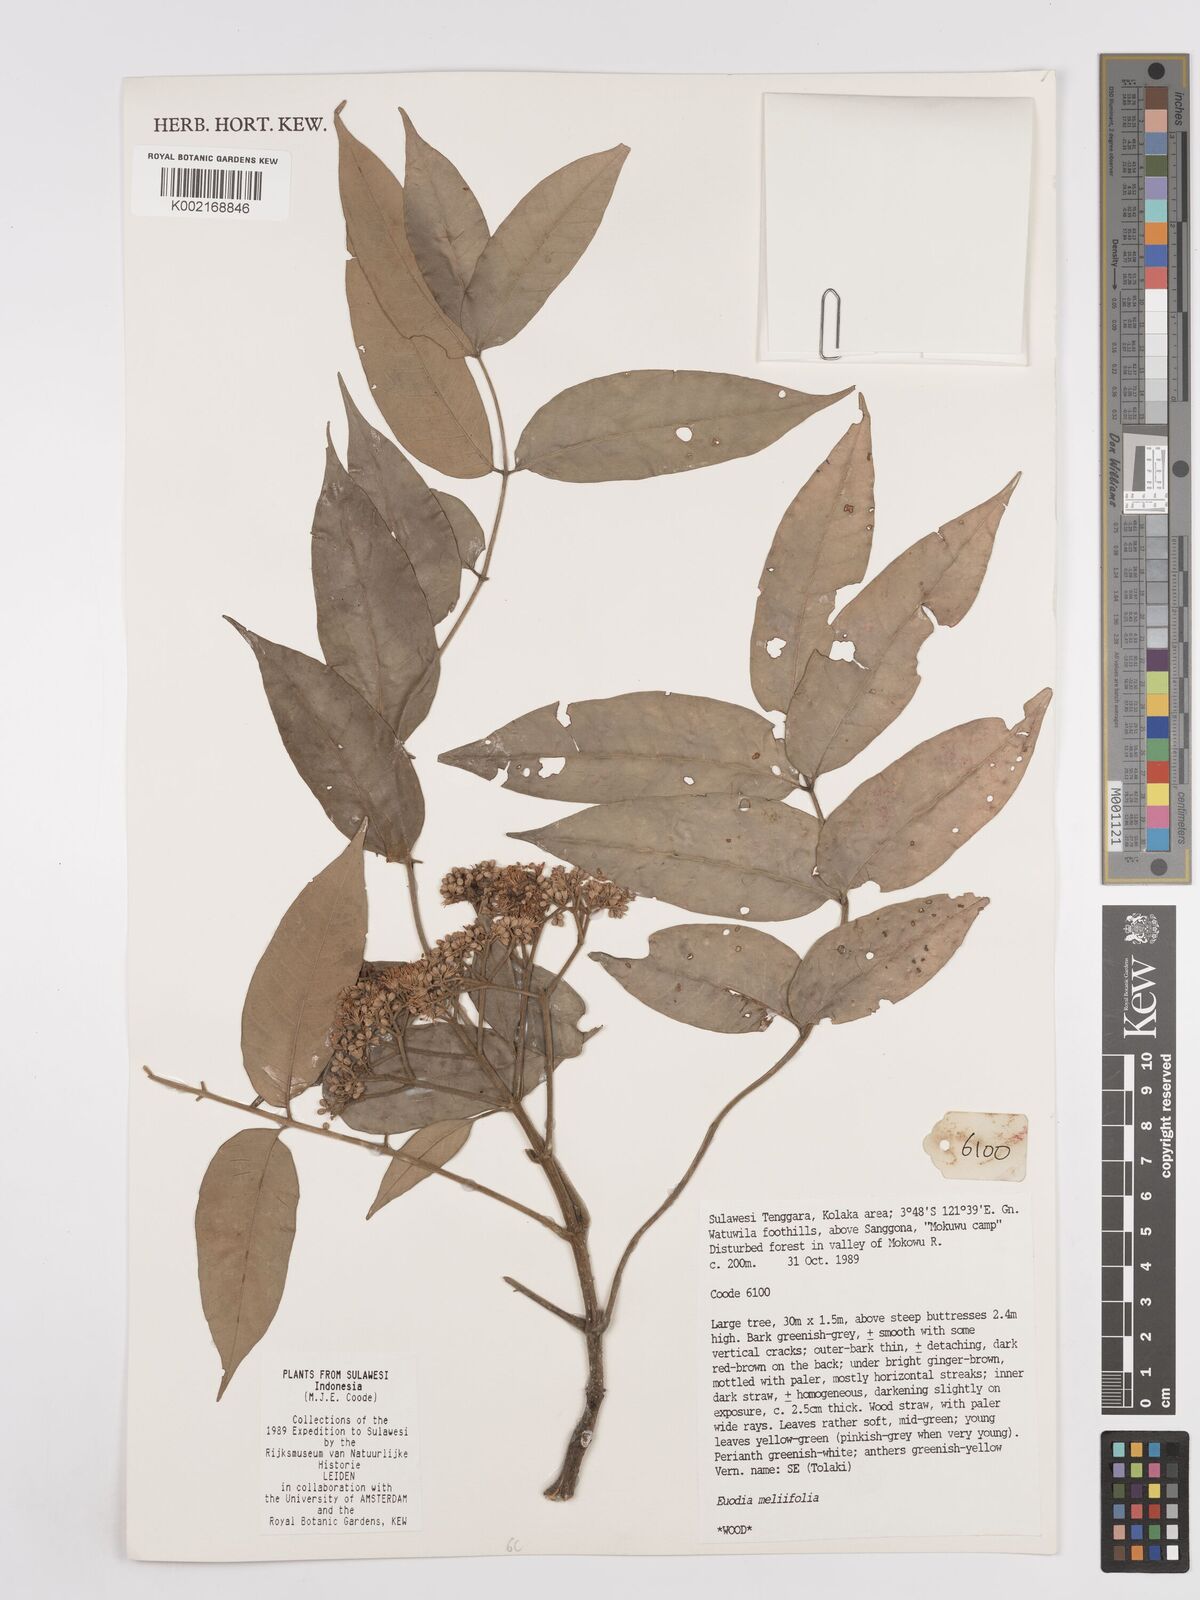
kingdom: Plantae
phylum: Tracheophyta
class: Magnoliopsida
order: Sapindales
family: Rutaceae
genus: Tetradium
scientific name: Tetradium glabrifolium
